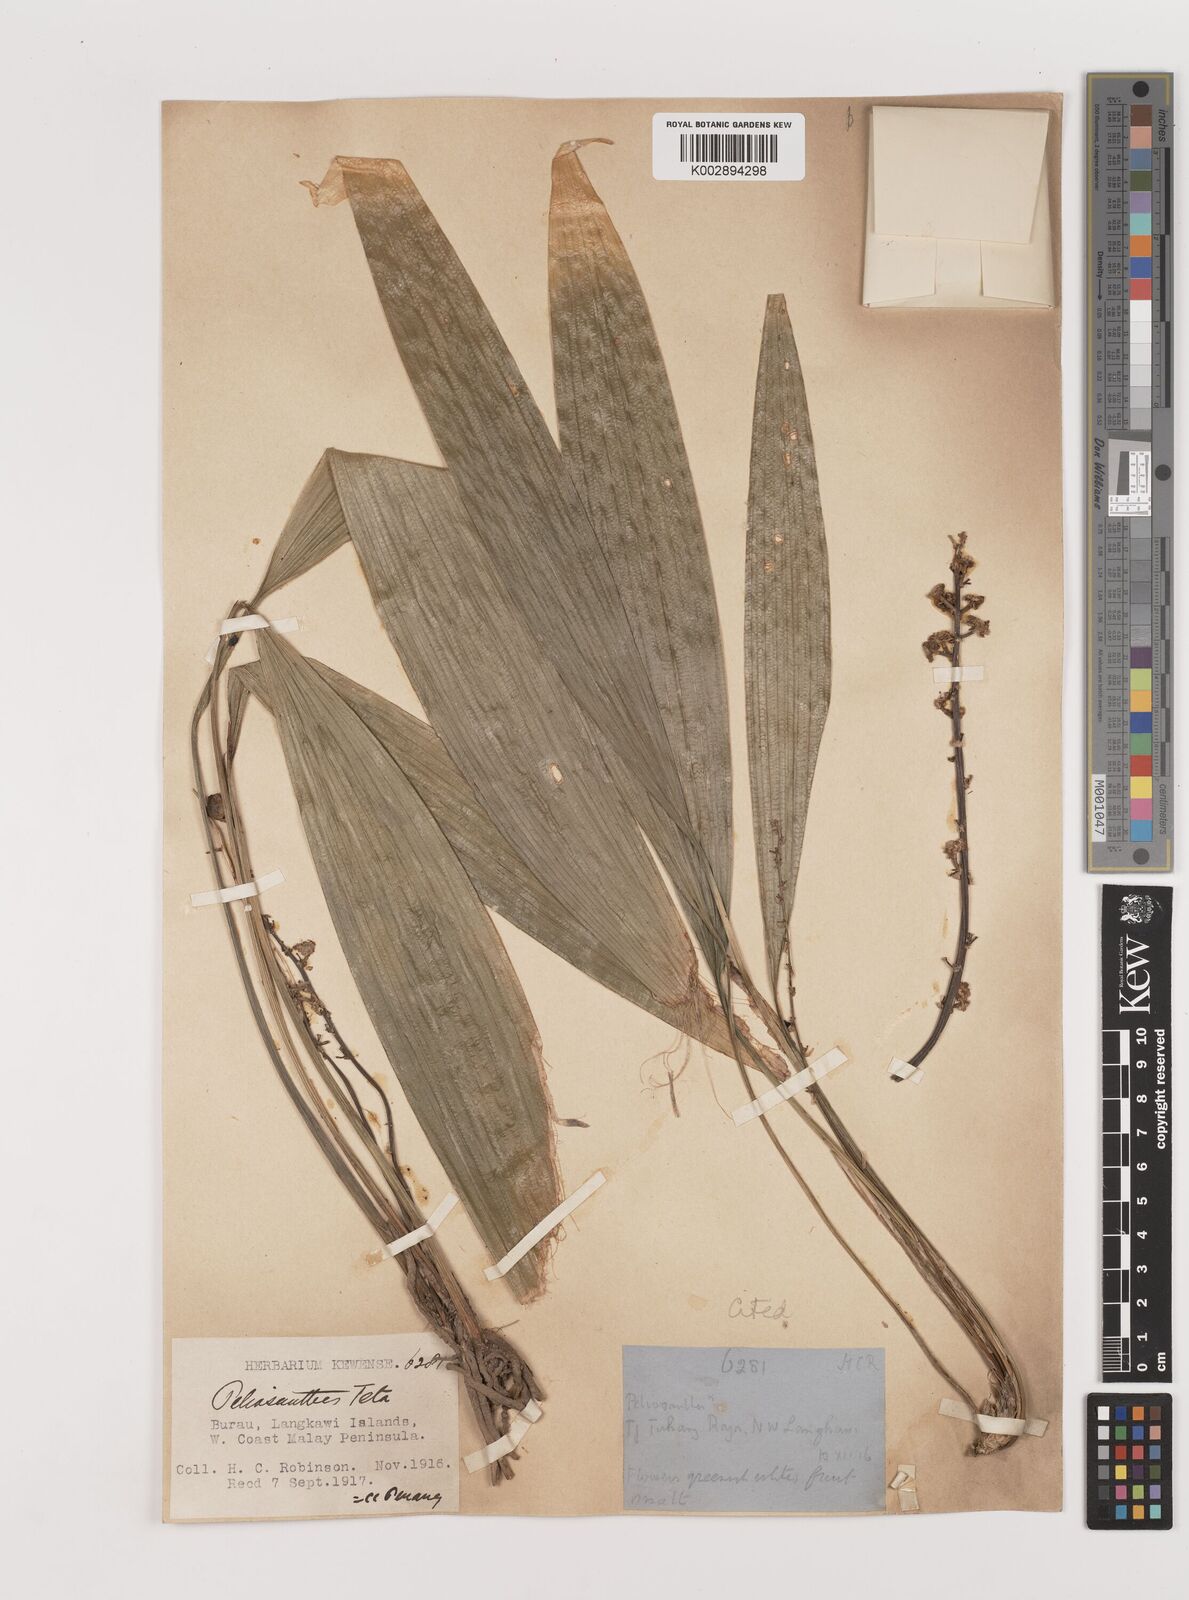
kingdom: Plantae
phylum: Tracheophyta
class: Liliopsida
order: Asparagales
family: Asparagaceae
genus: Peliosanthes
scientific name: Peliosanthes teta
